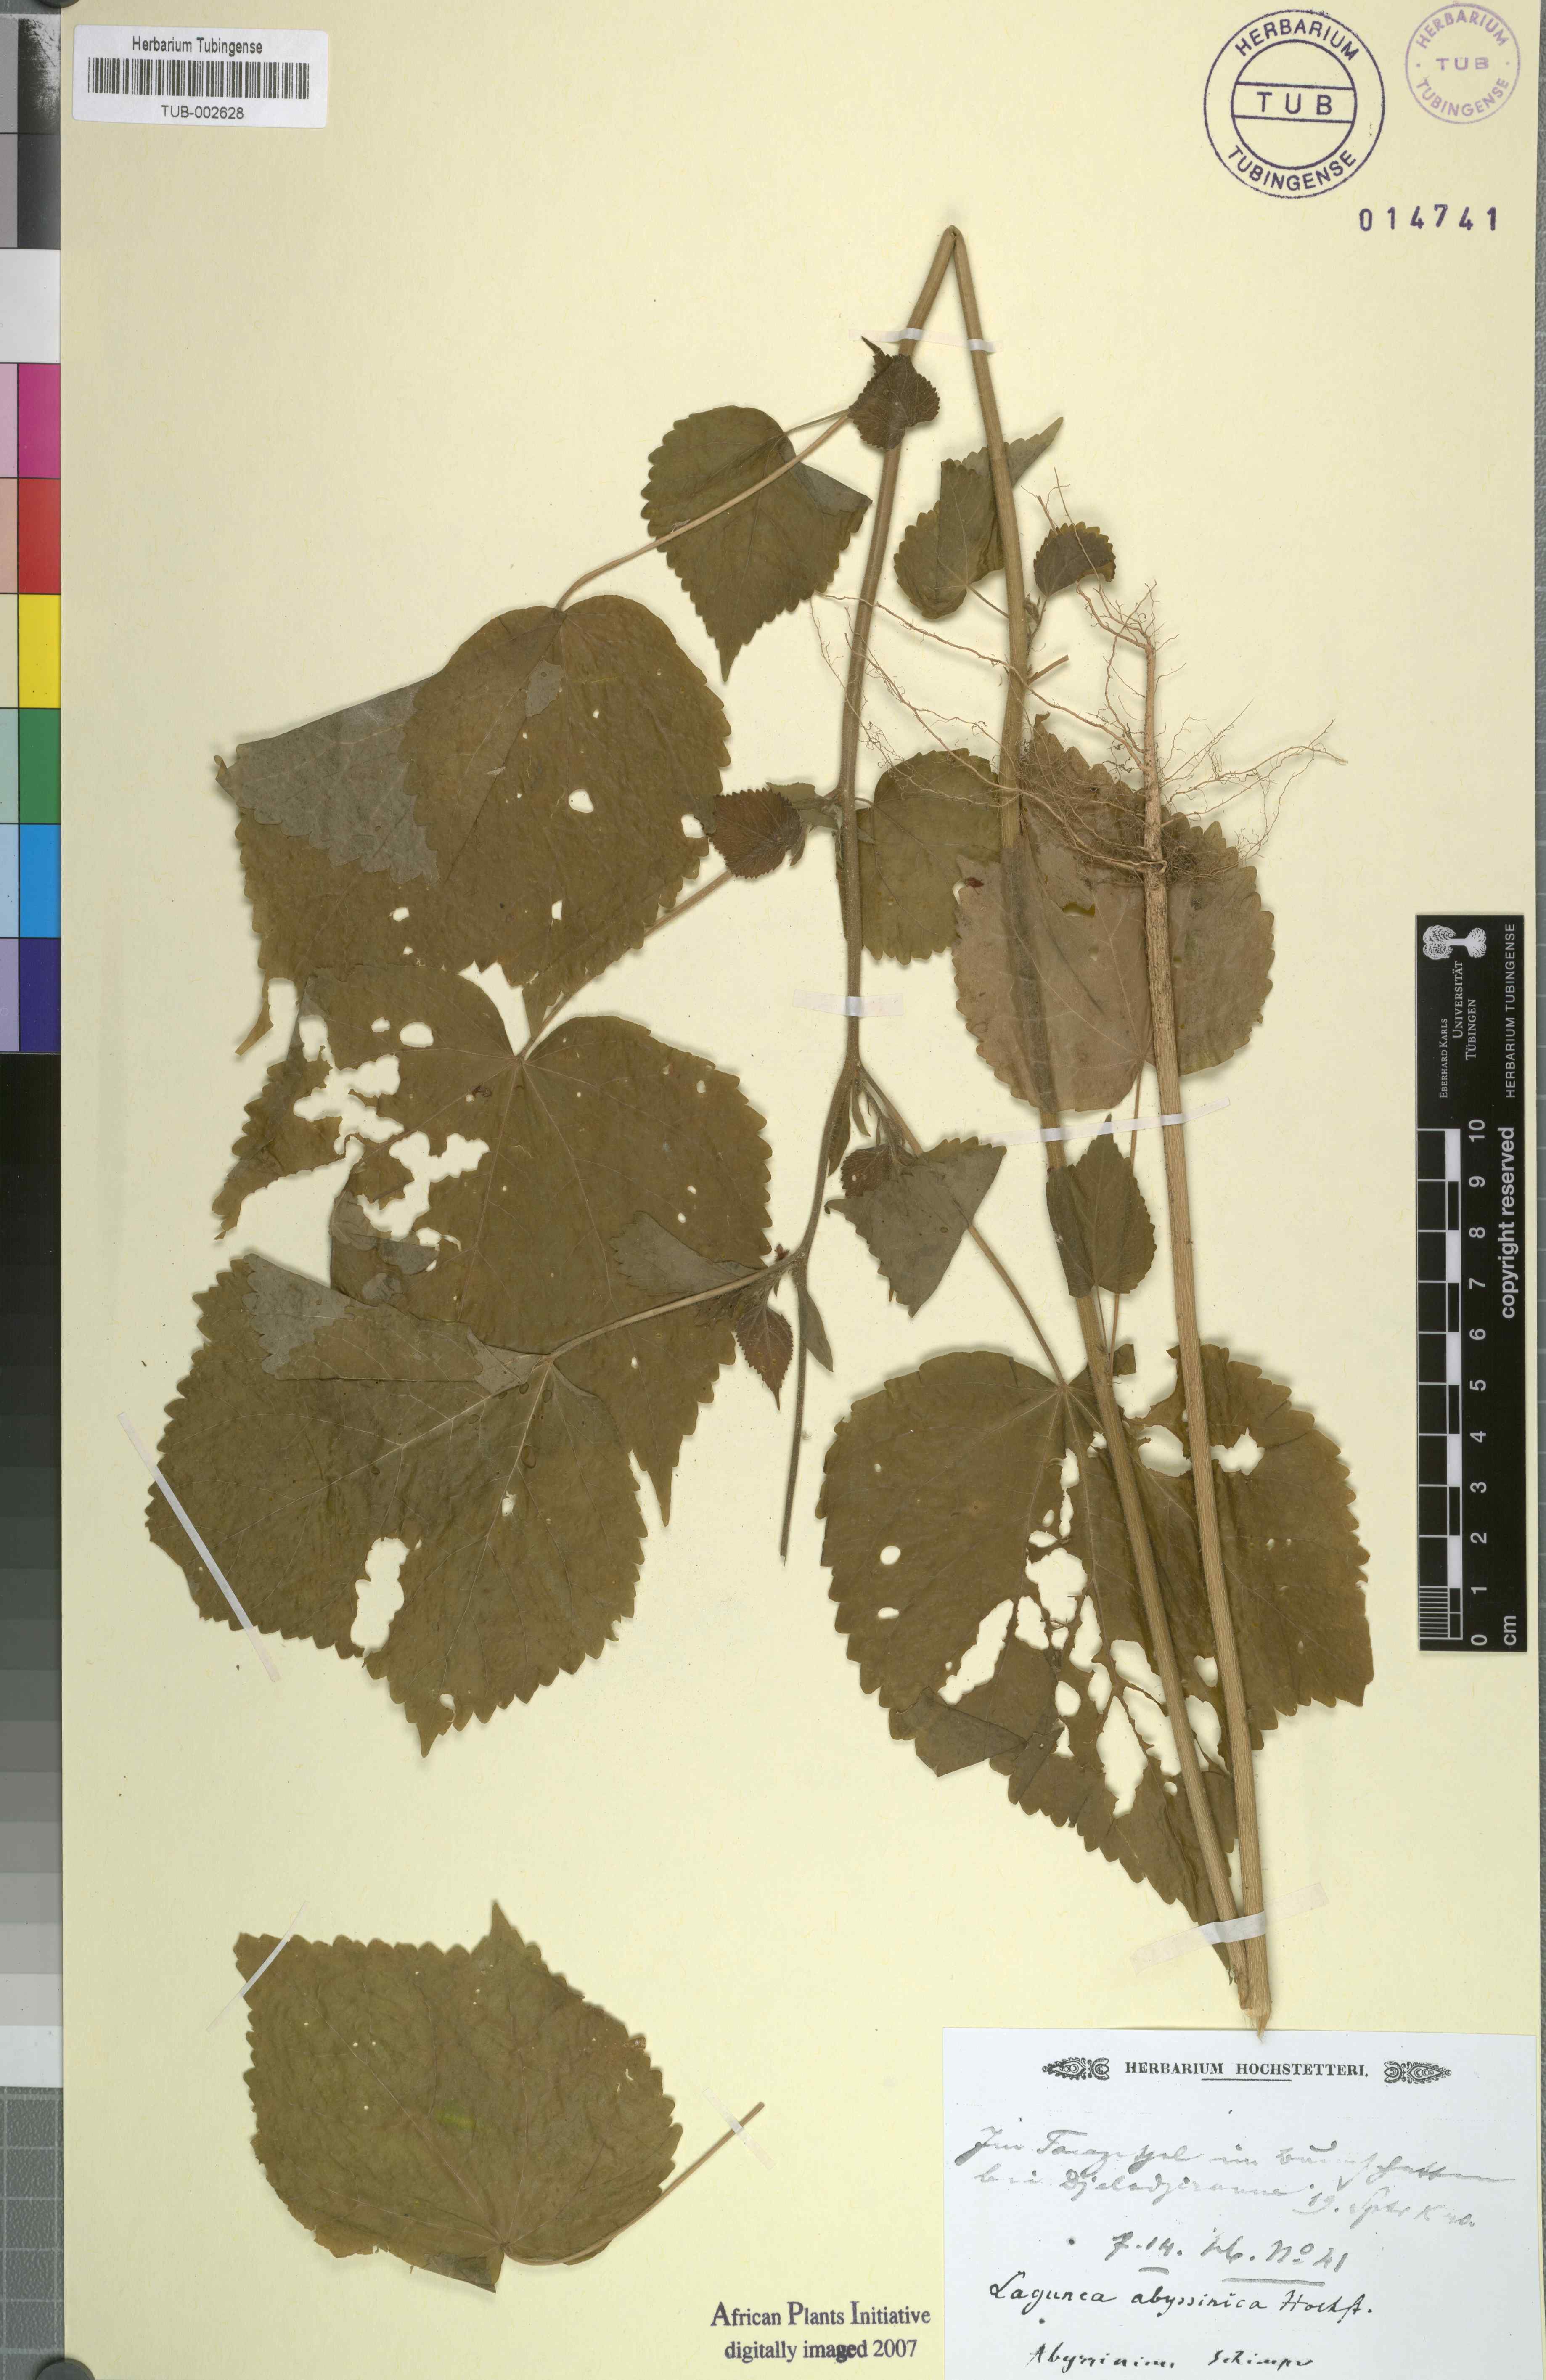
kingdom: Plantae
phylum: Tracheophyta
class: Magnoliopsida
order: Malvales
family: Malvaceae
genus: Hibiscus
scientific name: Hibiscus lobatus
